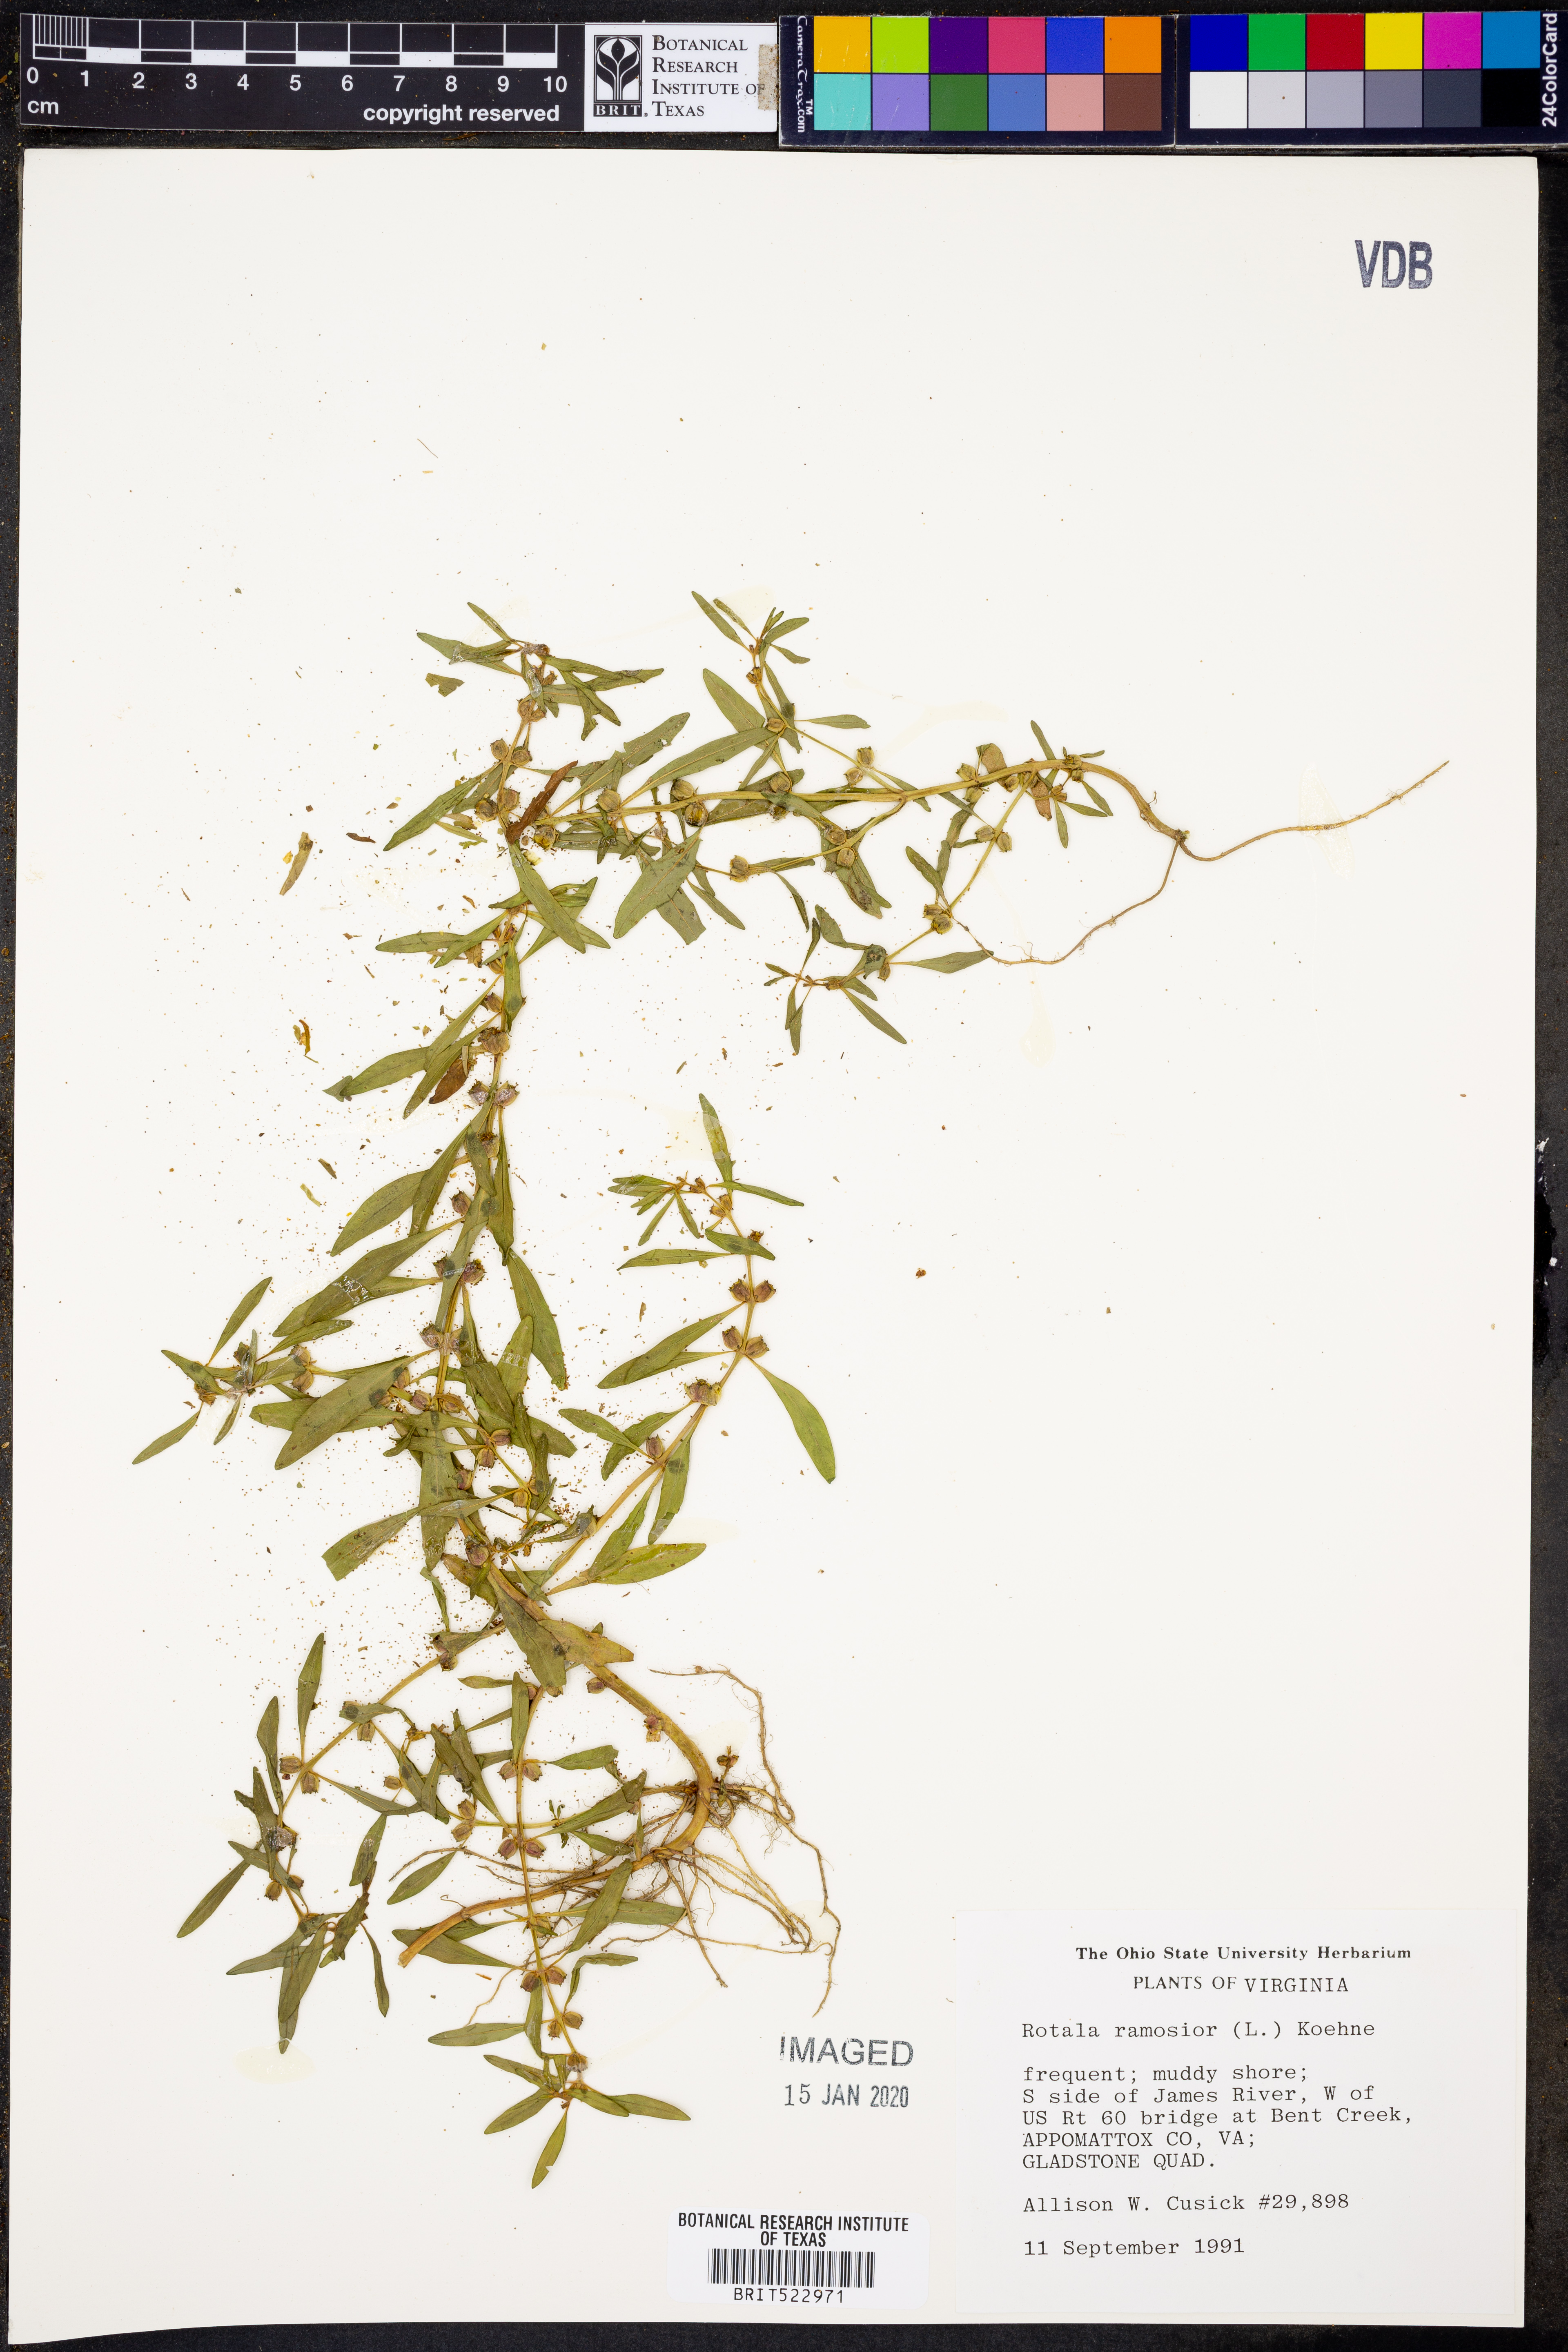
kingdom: Plantae
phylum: Tracheophyta
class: Magnoliopsida
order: Myrtales
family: Lythraceae
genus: Rotala
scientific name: Rotala ramosior
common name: Lowland rotala
